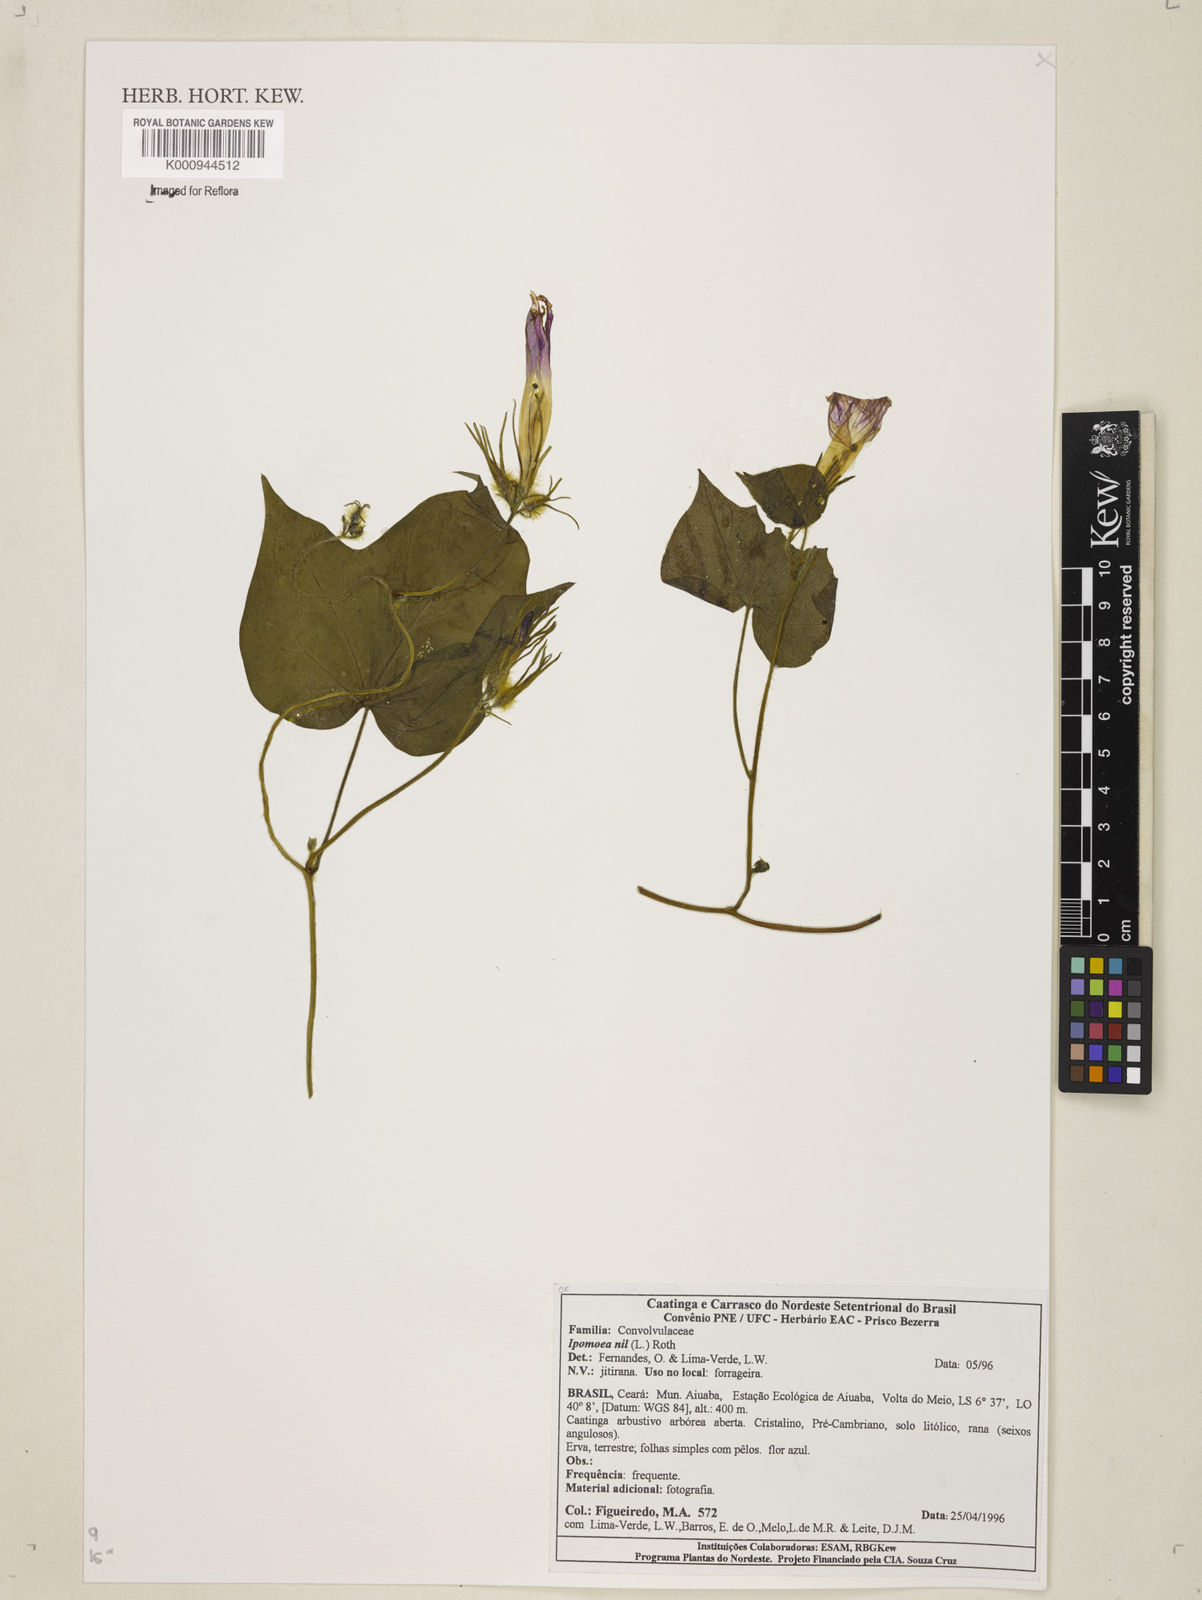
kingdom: Plantae
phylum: Tracheophyta
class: Magnoliopsida
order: Solanales
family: Convolvulaceae
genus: Ipomoea
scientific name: Ipomoea nil
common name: Japanese morning-glory
